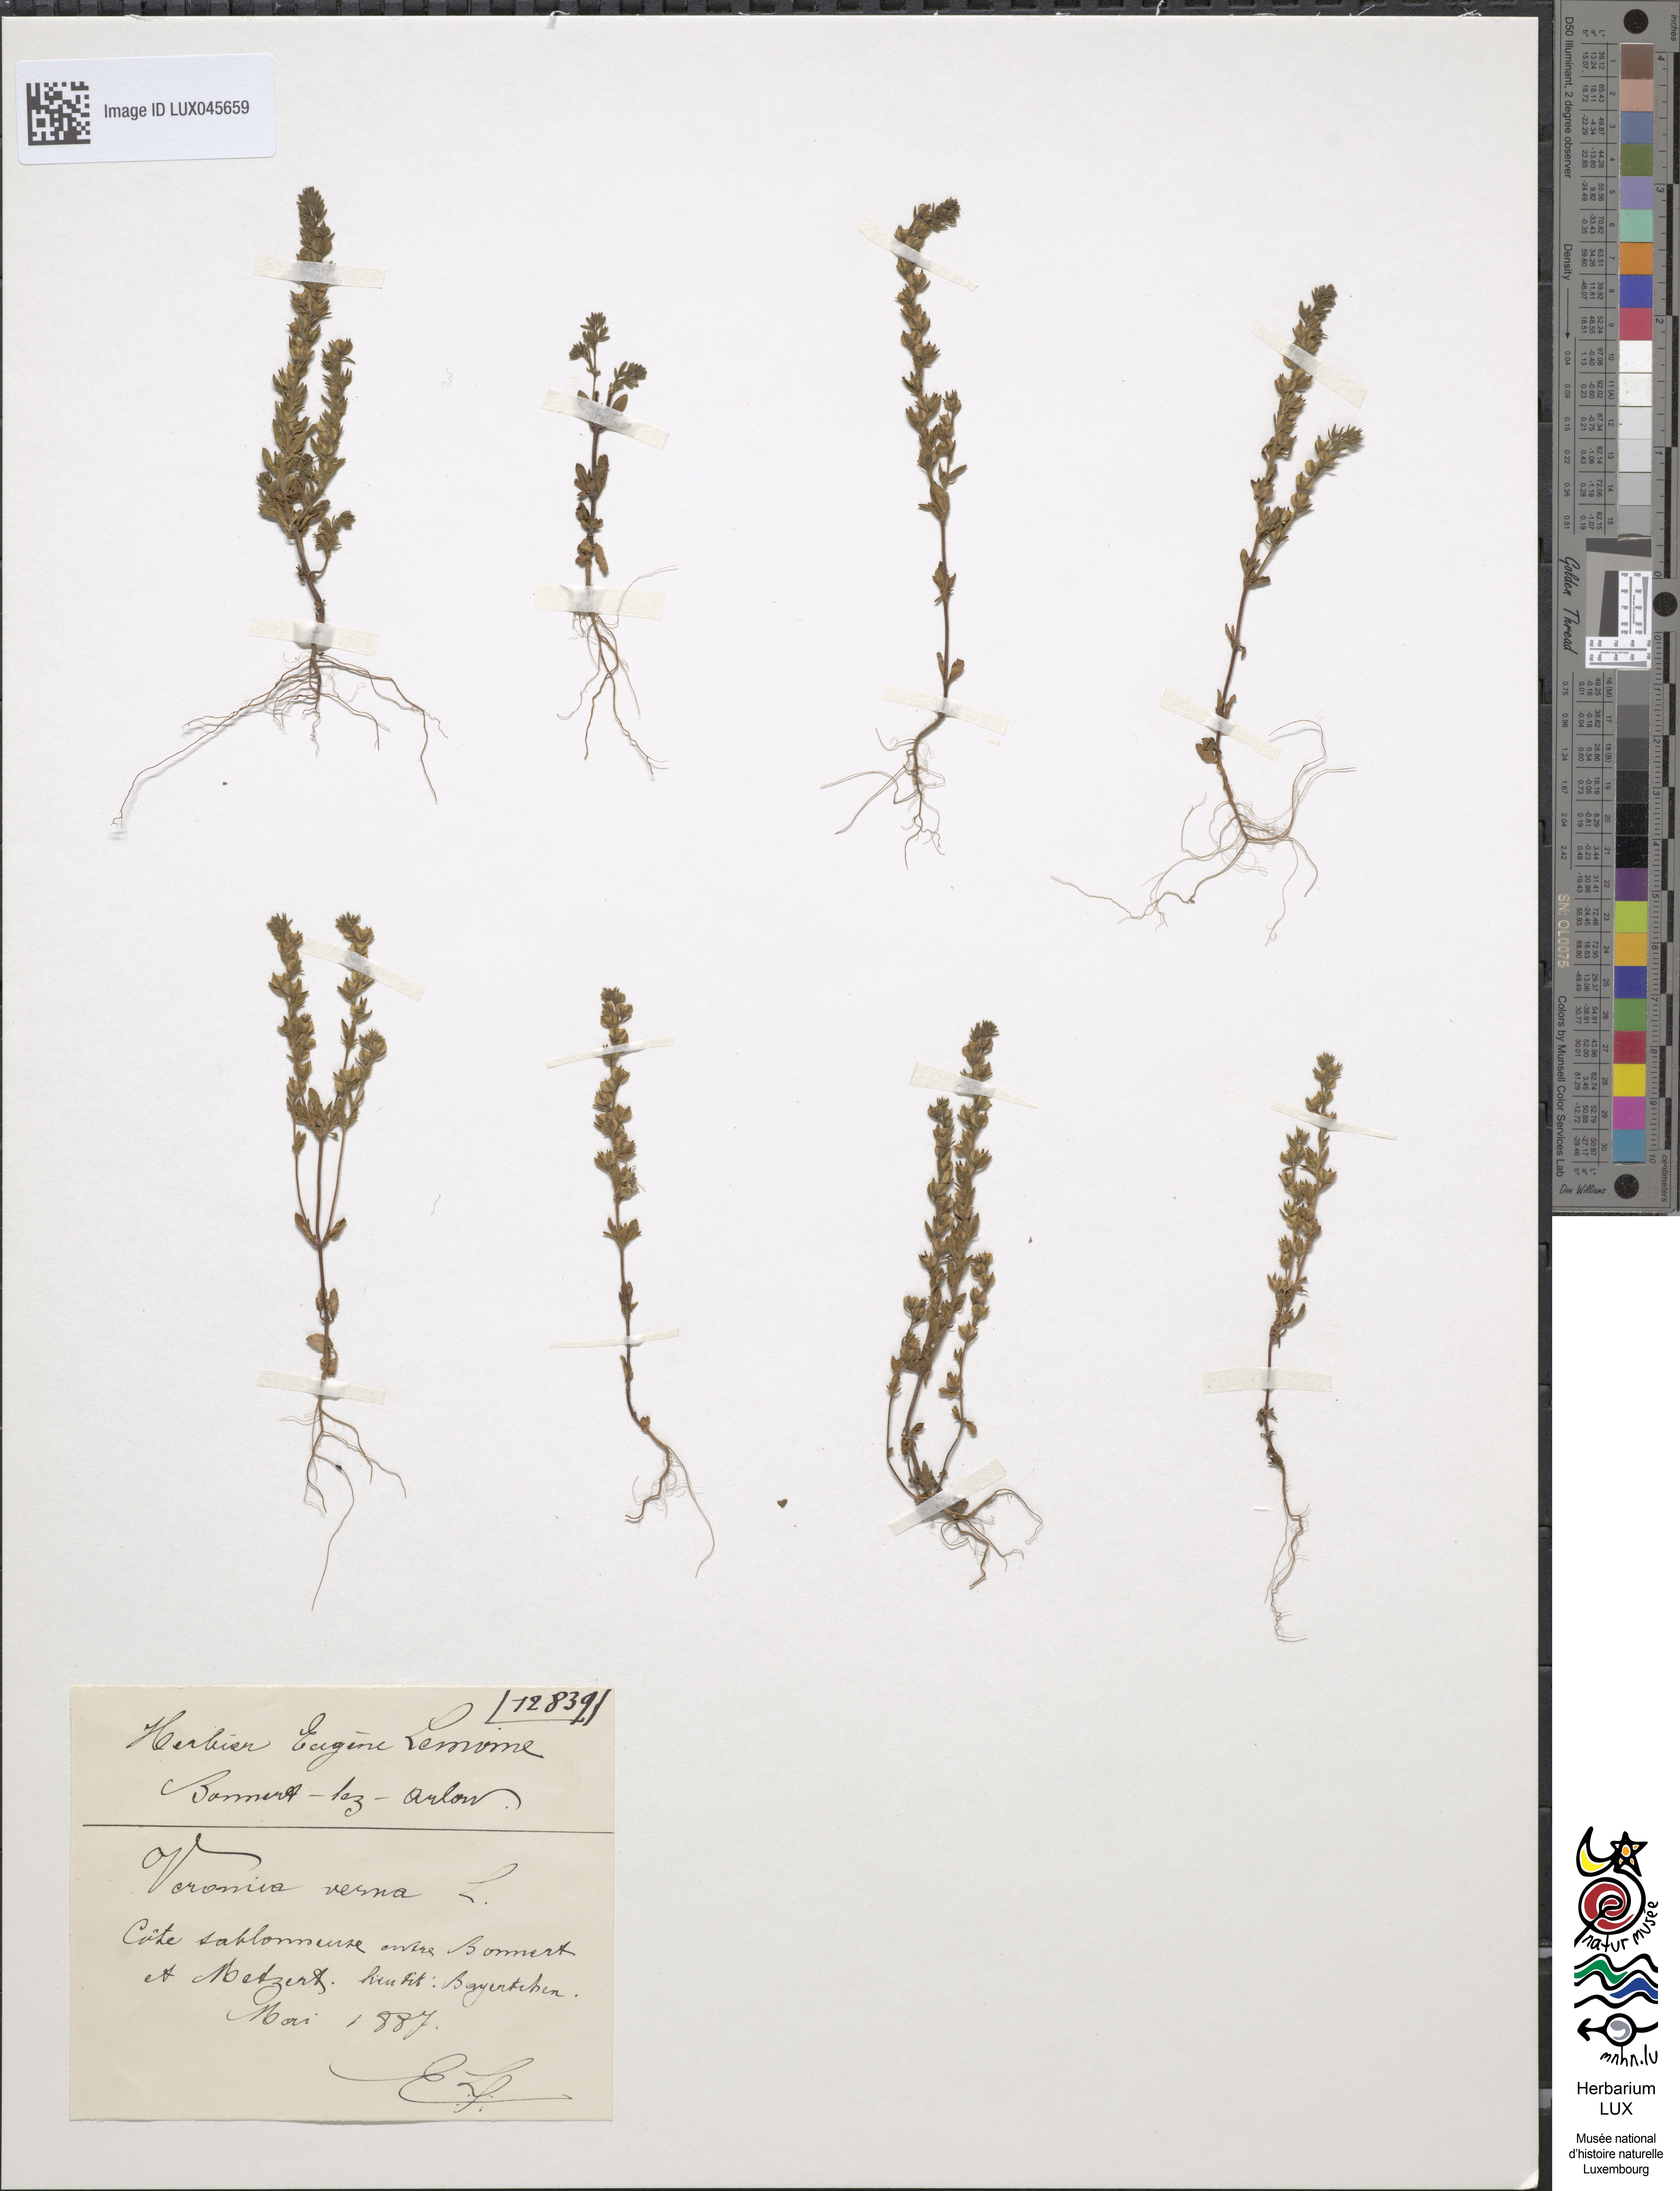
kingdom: Plantae
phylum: Tracheophyta
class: Magnoliopsida
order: Lamiales
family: Plantaginaceae
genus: Veronica
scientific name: Veronica verna
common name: Spring speedwell
